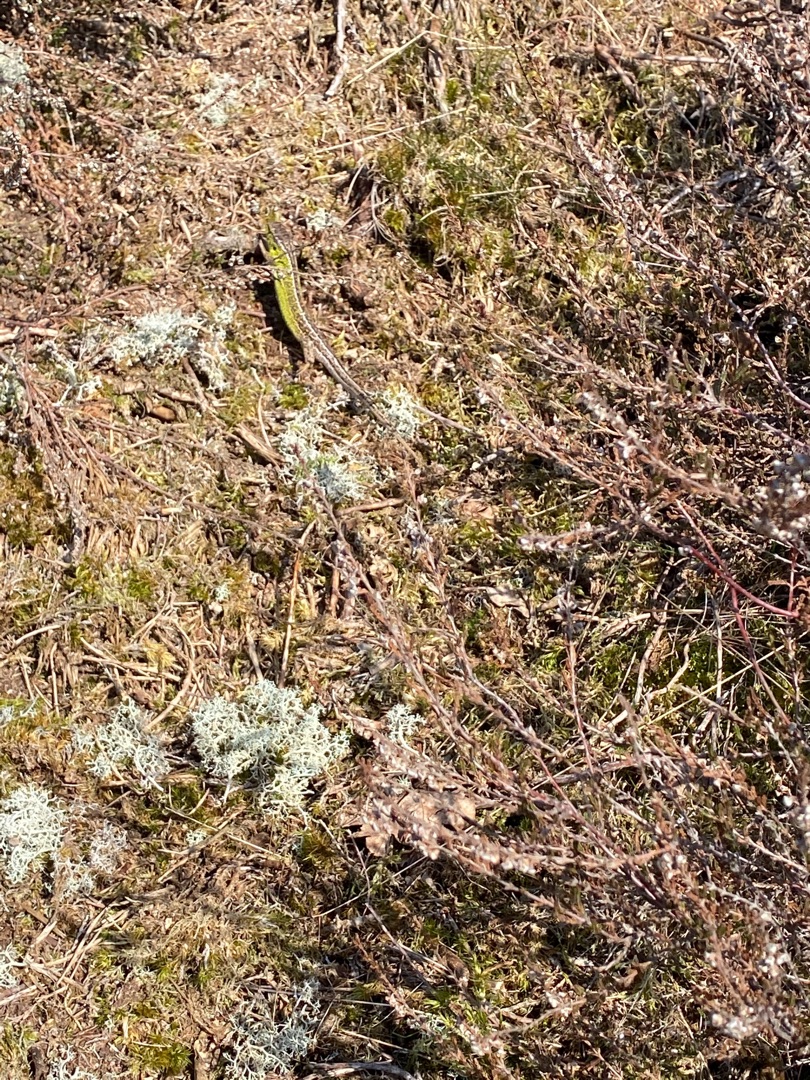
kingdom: Animalia
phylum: Chordata
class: Squamata
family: Lacertidae
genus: Lacerta
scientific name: Lacerta agilis
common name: Markfirben
